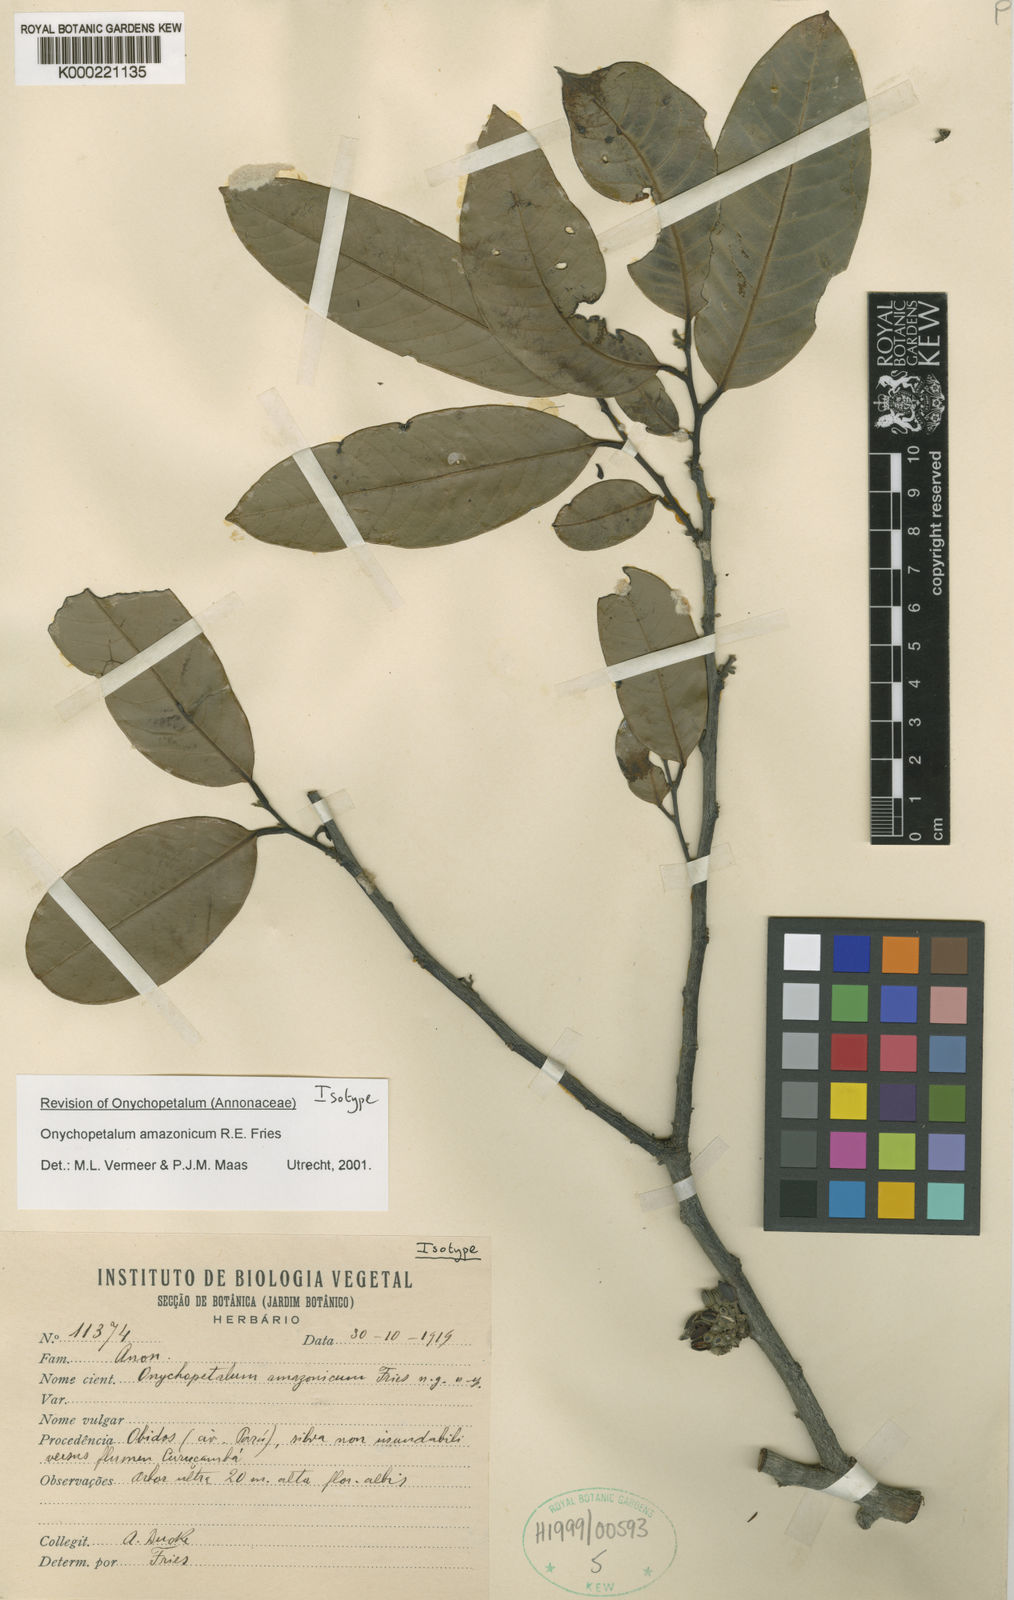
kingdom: Plantae
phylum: Tracheophyta
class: Magnoliopsida
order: Magnoliales
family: Annonaceae
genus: Onychopetalum
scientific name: Onychopetalum amazonicum
